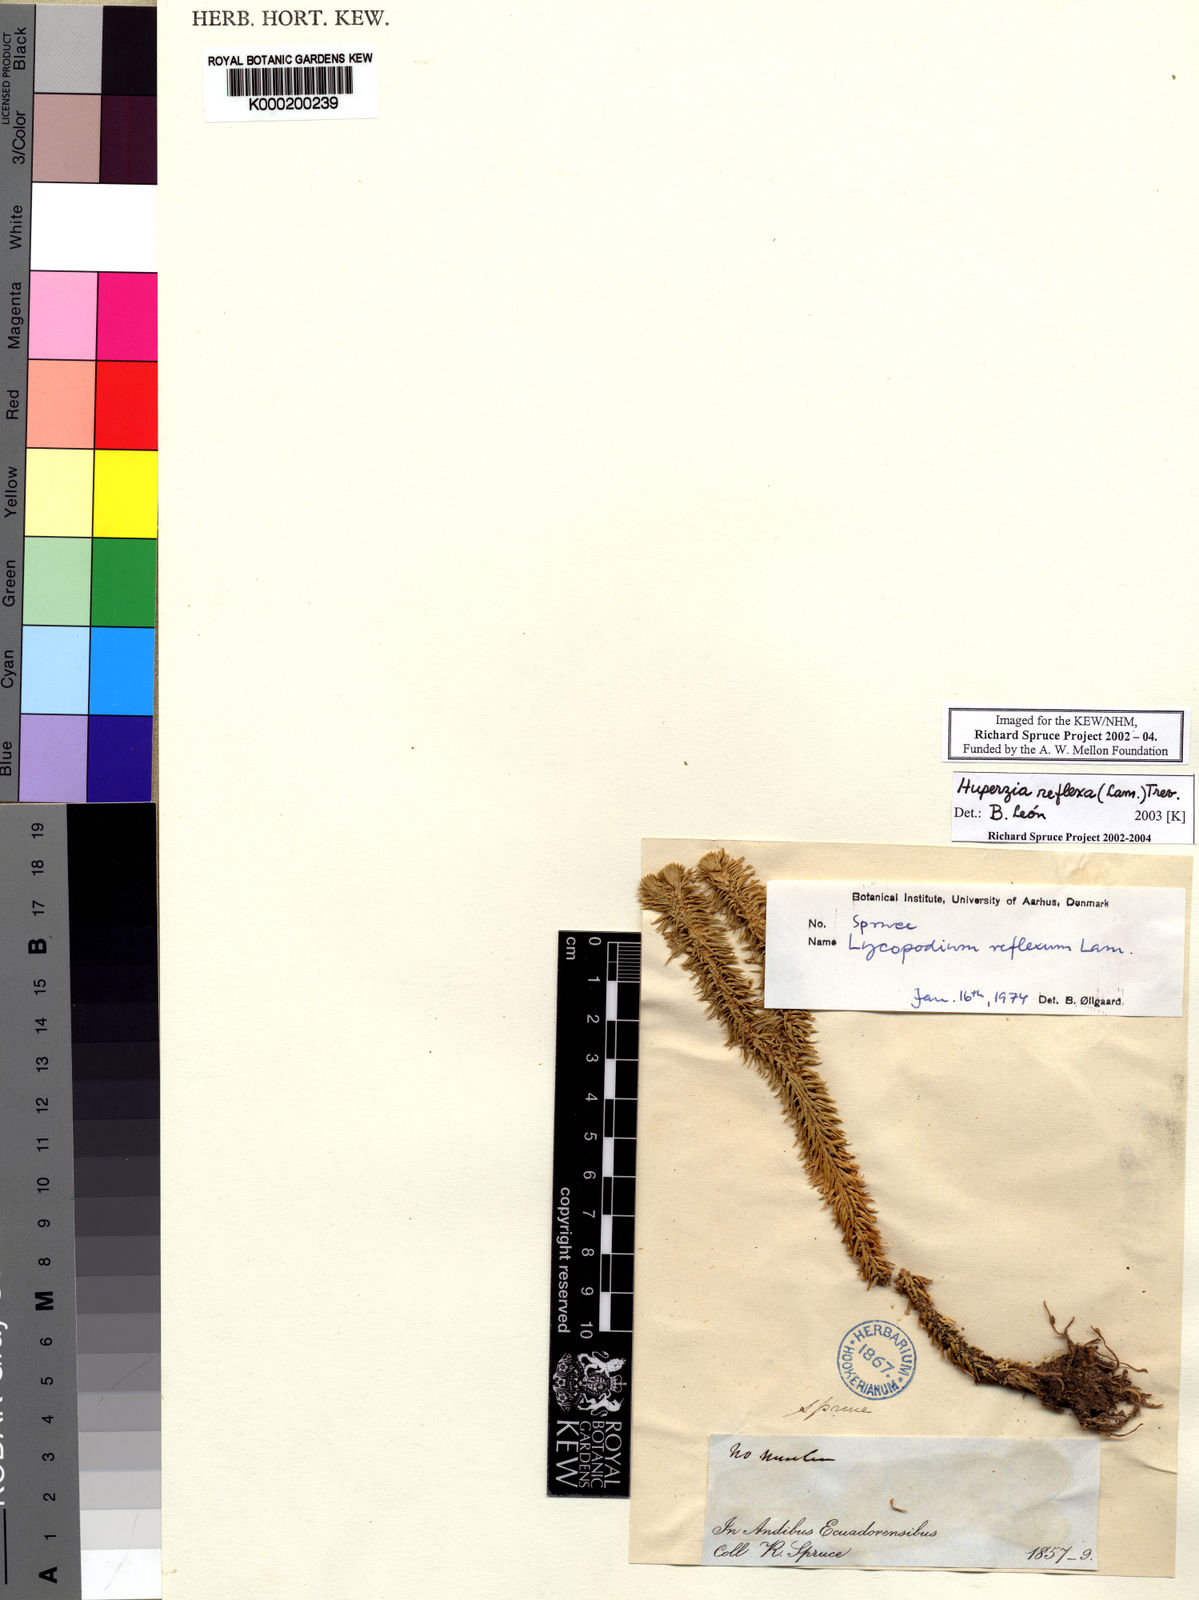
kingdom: Plantae
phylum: Tracheophyta
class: Lycopodiopsida
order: Lycopodiales
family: Lycopodiaceae
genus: Phlegmariurus
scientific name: Phlegmariurus reflexus
